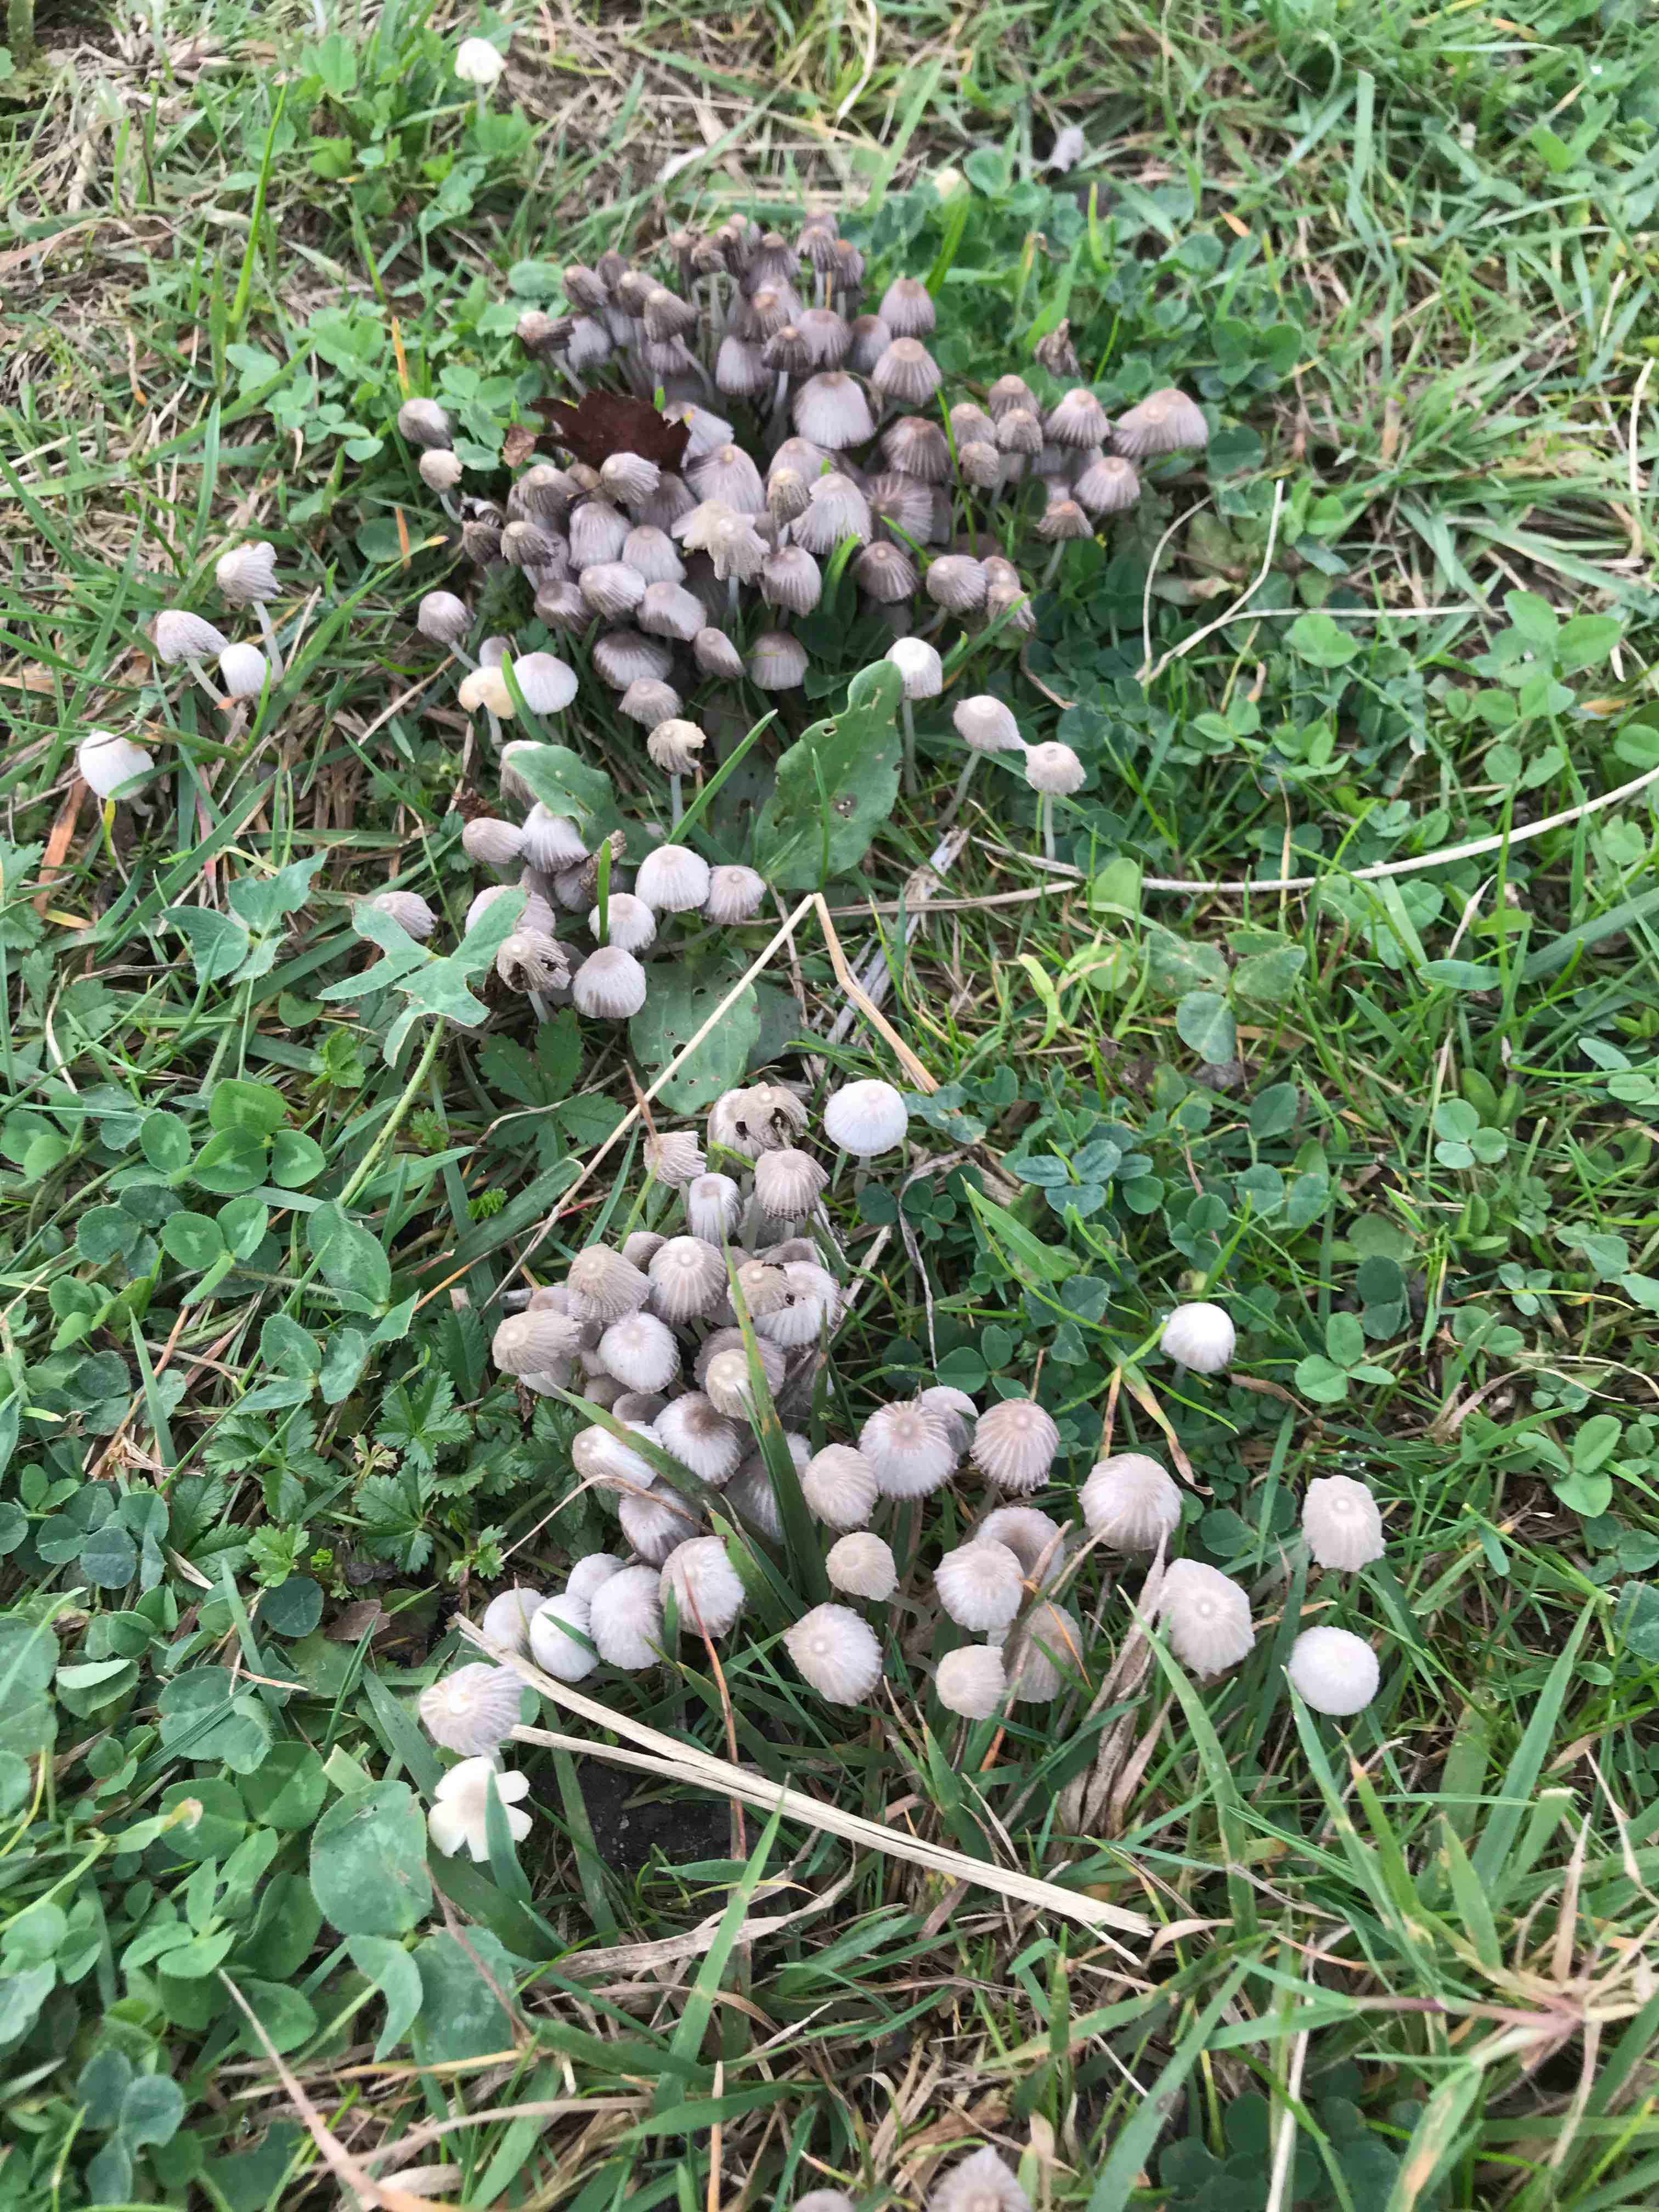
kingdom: Fungi
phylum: Basidiomycota
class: Agaricomycetes
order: Agaricales
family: Psathyrellaceae
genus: Coprinellus
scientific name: Coprinellus disseminatus
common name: bredsået blækhat
